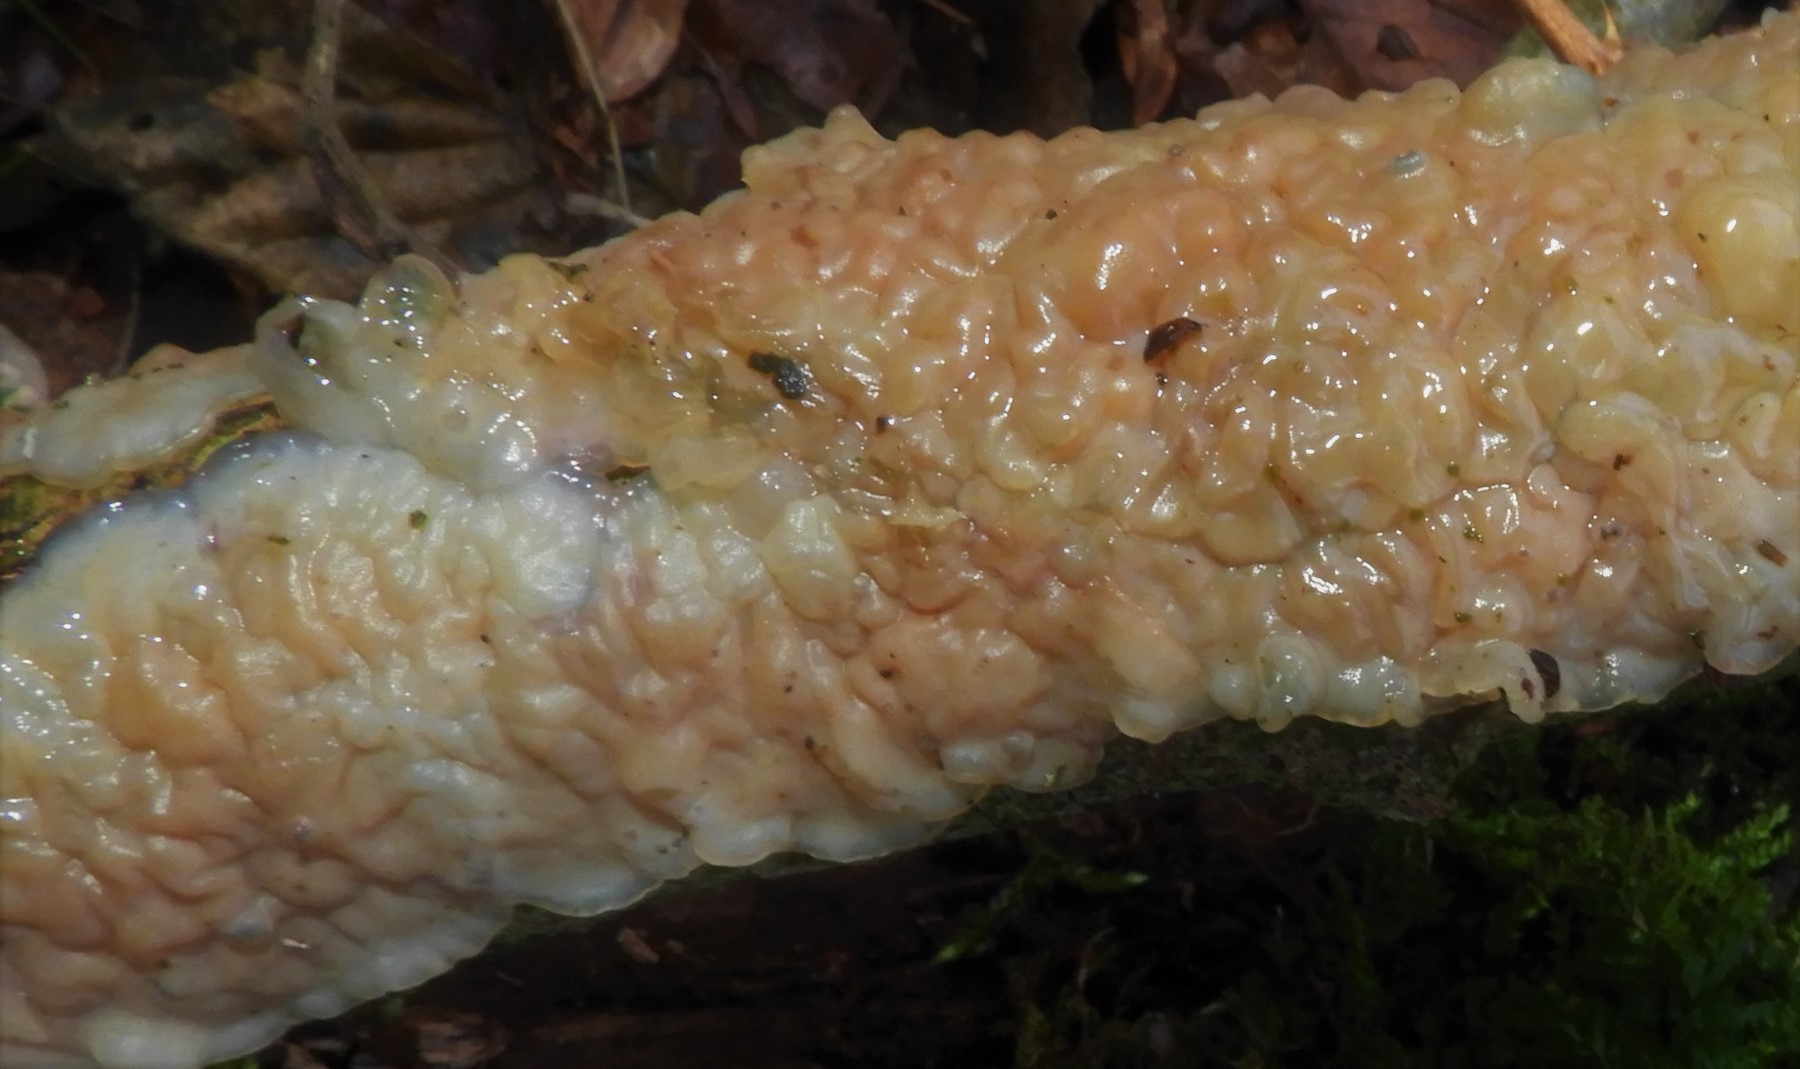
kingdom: Fungi
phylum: Basidiomycota
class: Agaricomycetes
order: Auriculariales
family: Auriculariaceae
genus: Exidia
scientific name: Exidia thuretiana
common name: hvidlig bævretop
